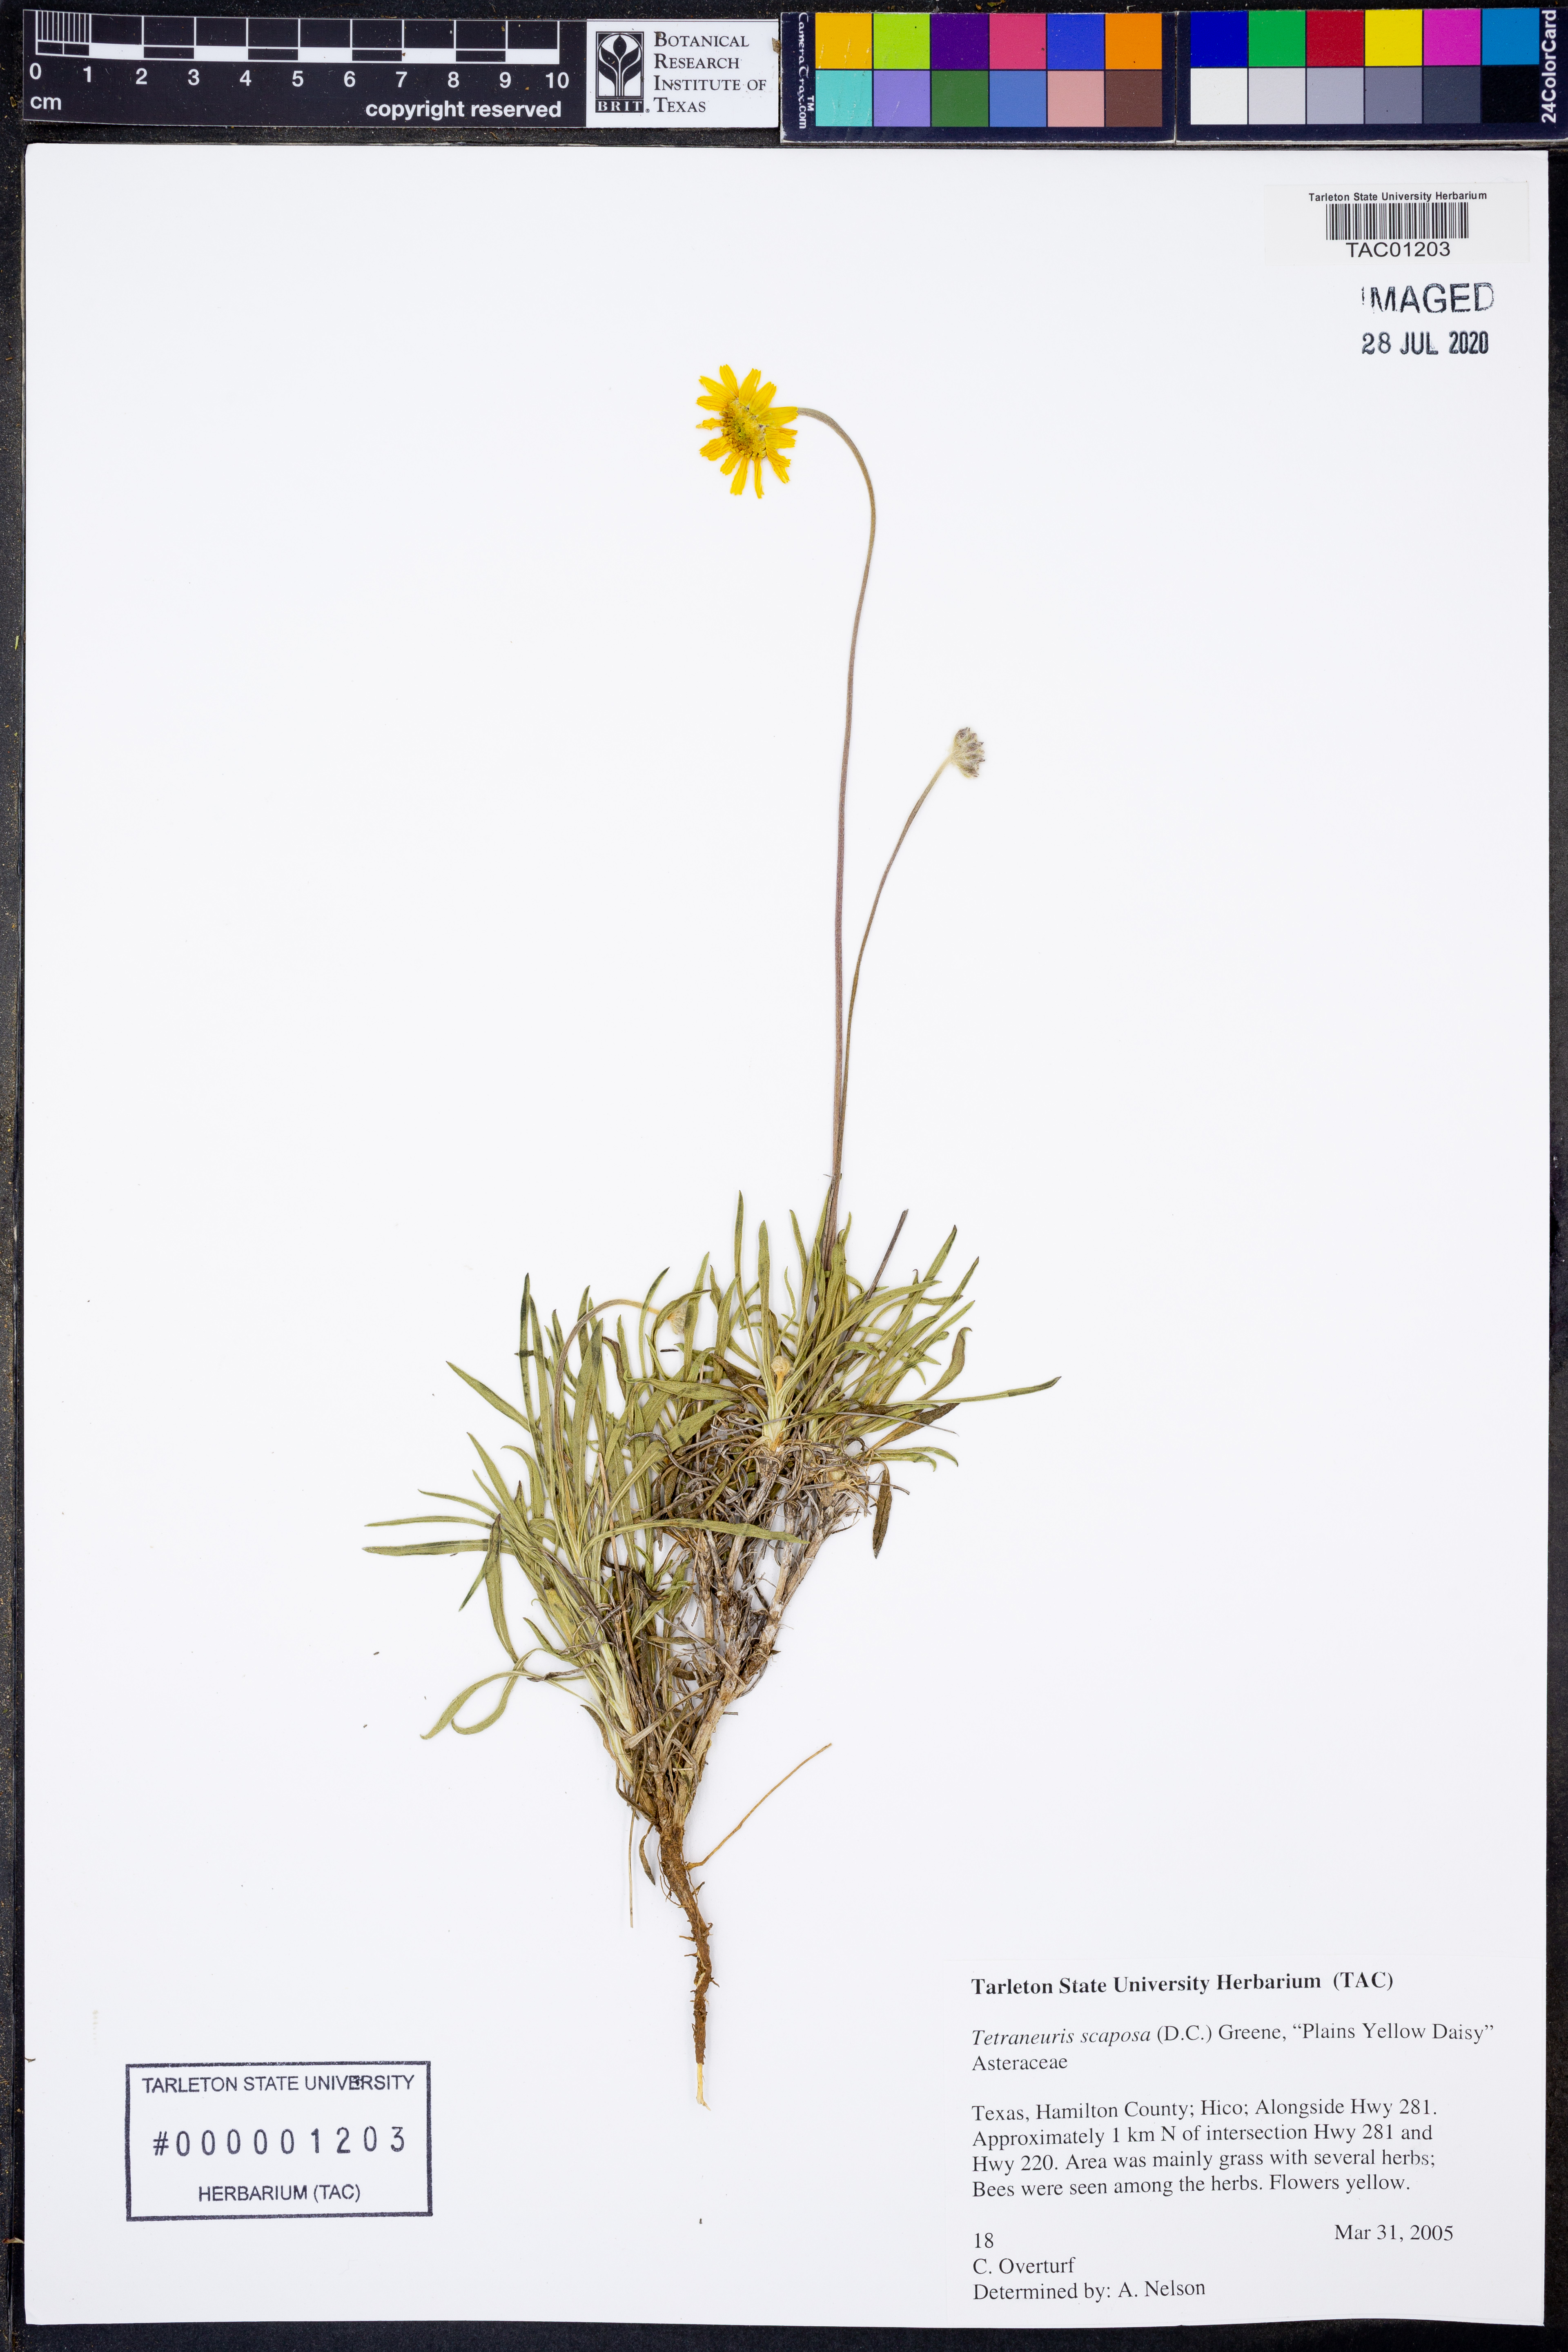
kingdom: Plantae
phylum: Tracheophyta
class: Magnoliopsida
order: Asterales
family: Asteraceae
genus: Tetraneuris
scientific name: Tetraneuris scaposa
